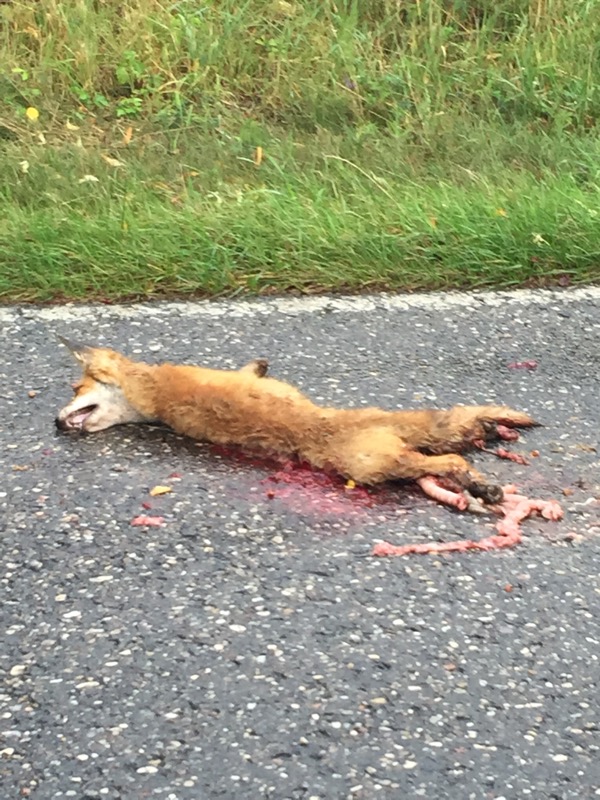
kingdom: Animalia
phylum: Chordata
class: Mammalia
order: Carnivora
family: Canidae
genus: Vulpes
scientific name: Vulpes vulpes
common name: Red fox
